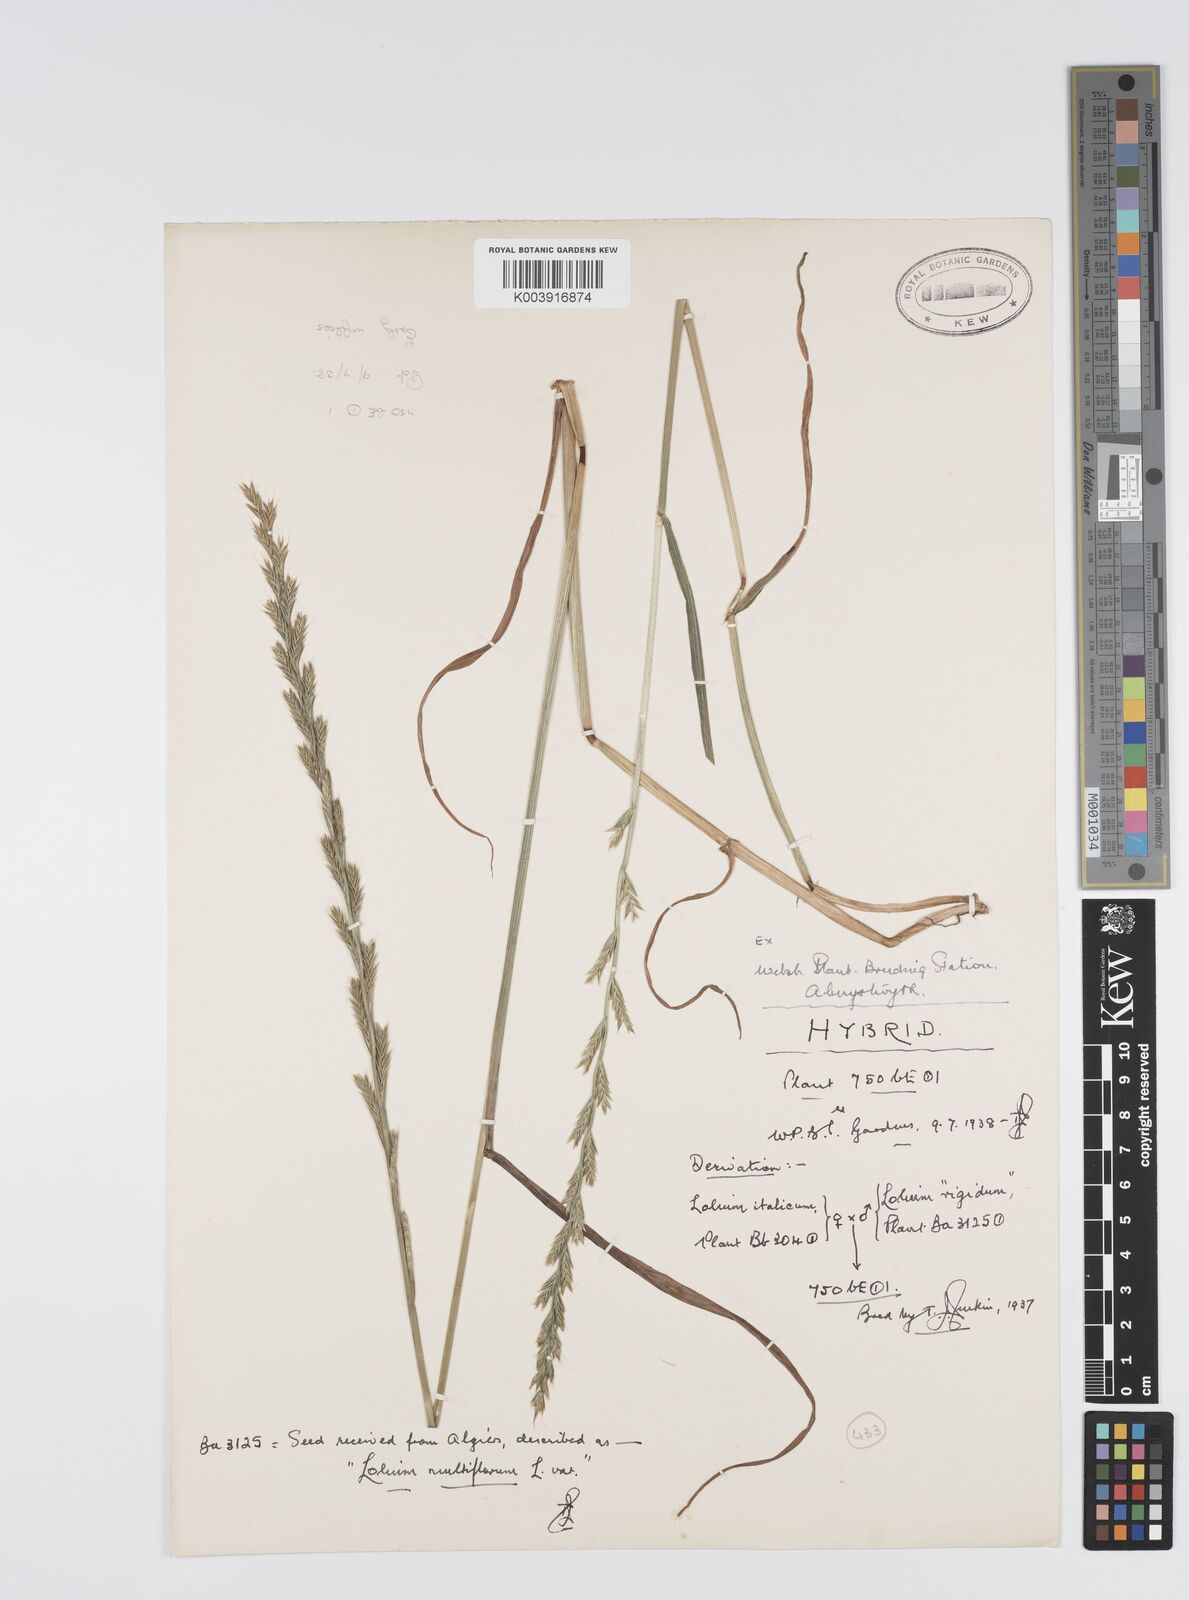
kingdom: Plantae
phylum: Tracheophyta
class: Liliopsida
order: Poales
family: Poaceae
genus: Lolium
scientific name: Lolium multiflorum
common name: Annual ryegrass
